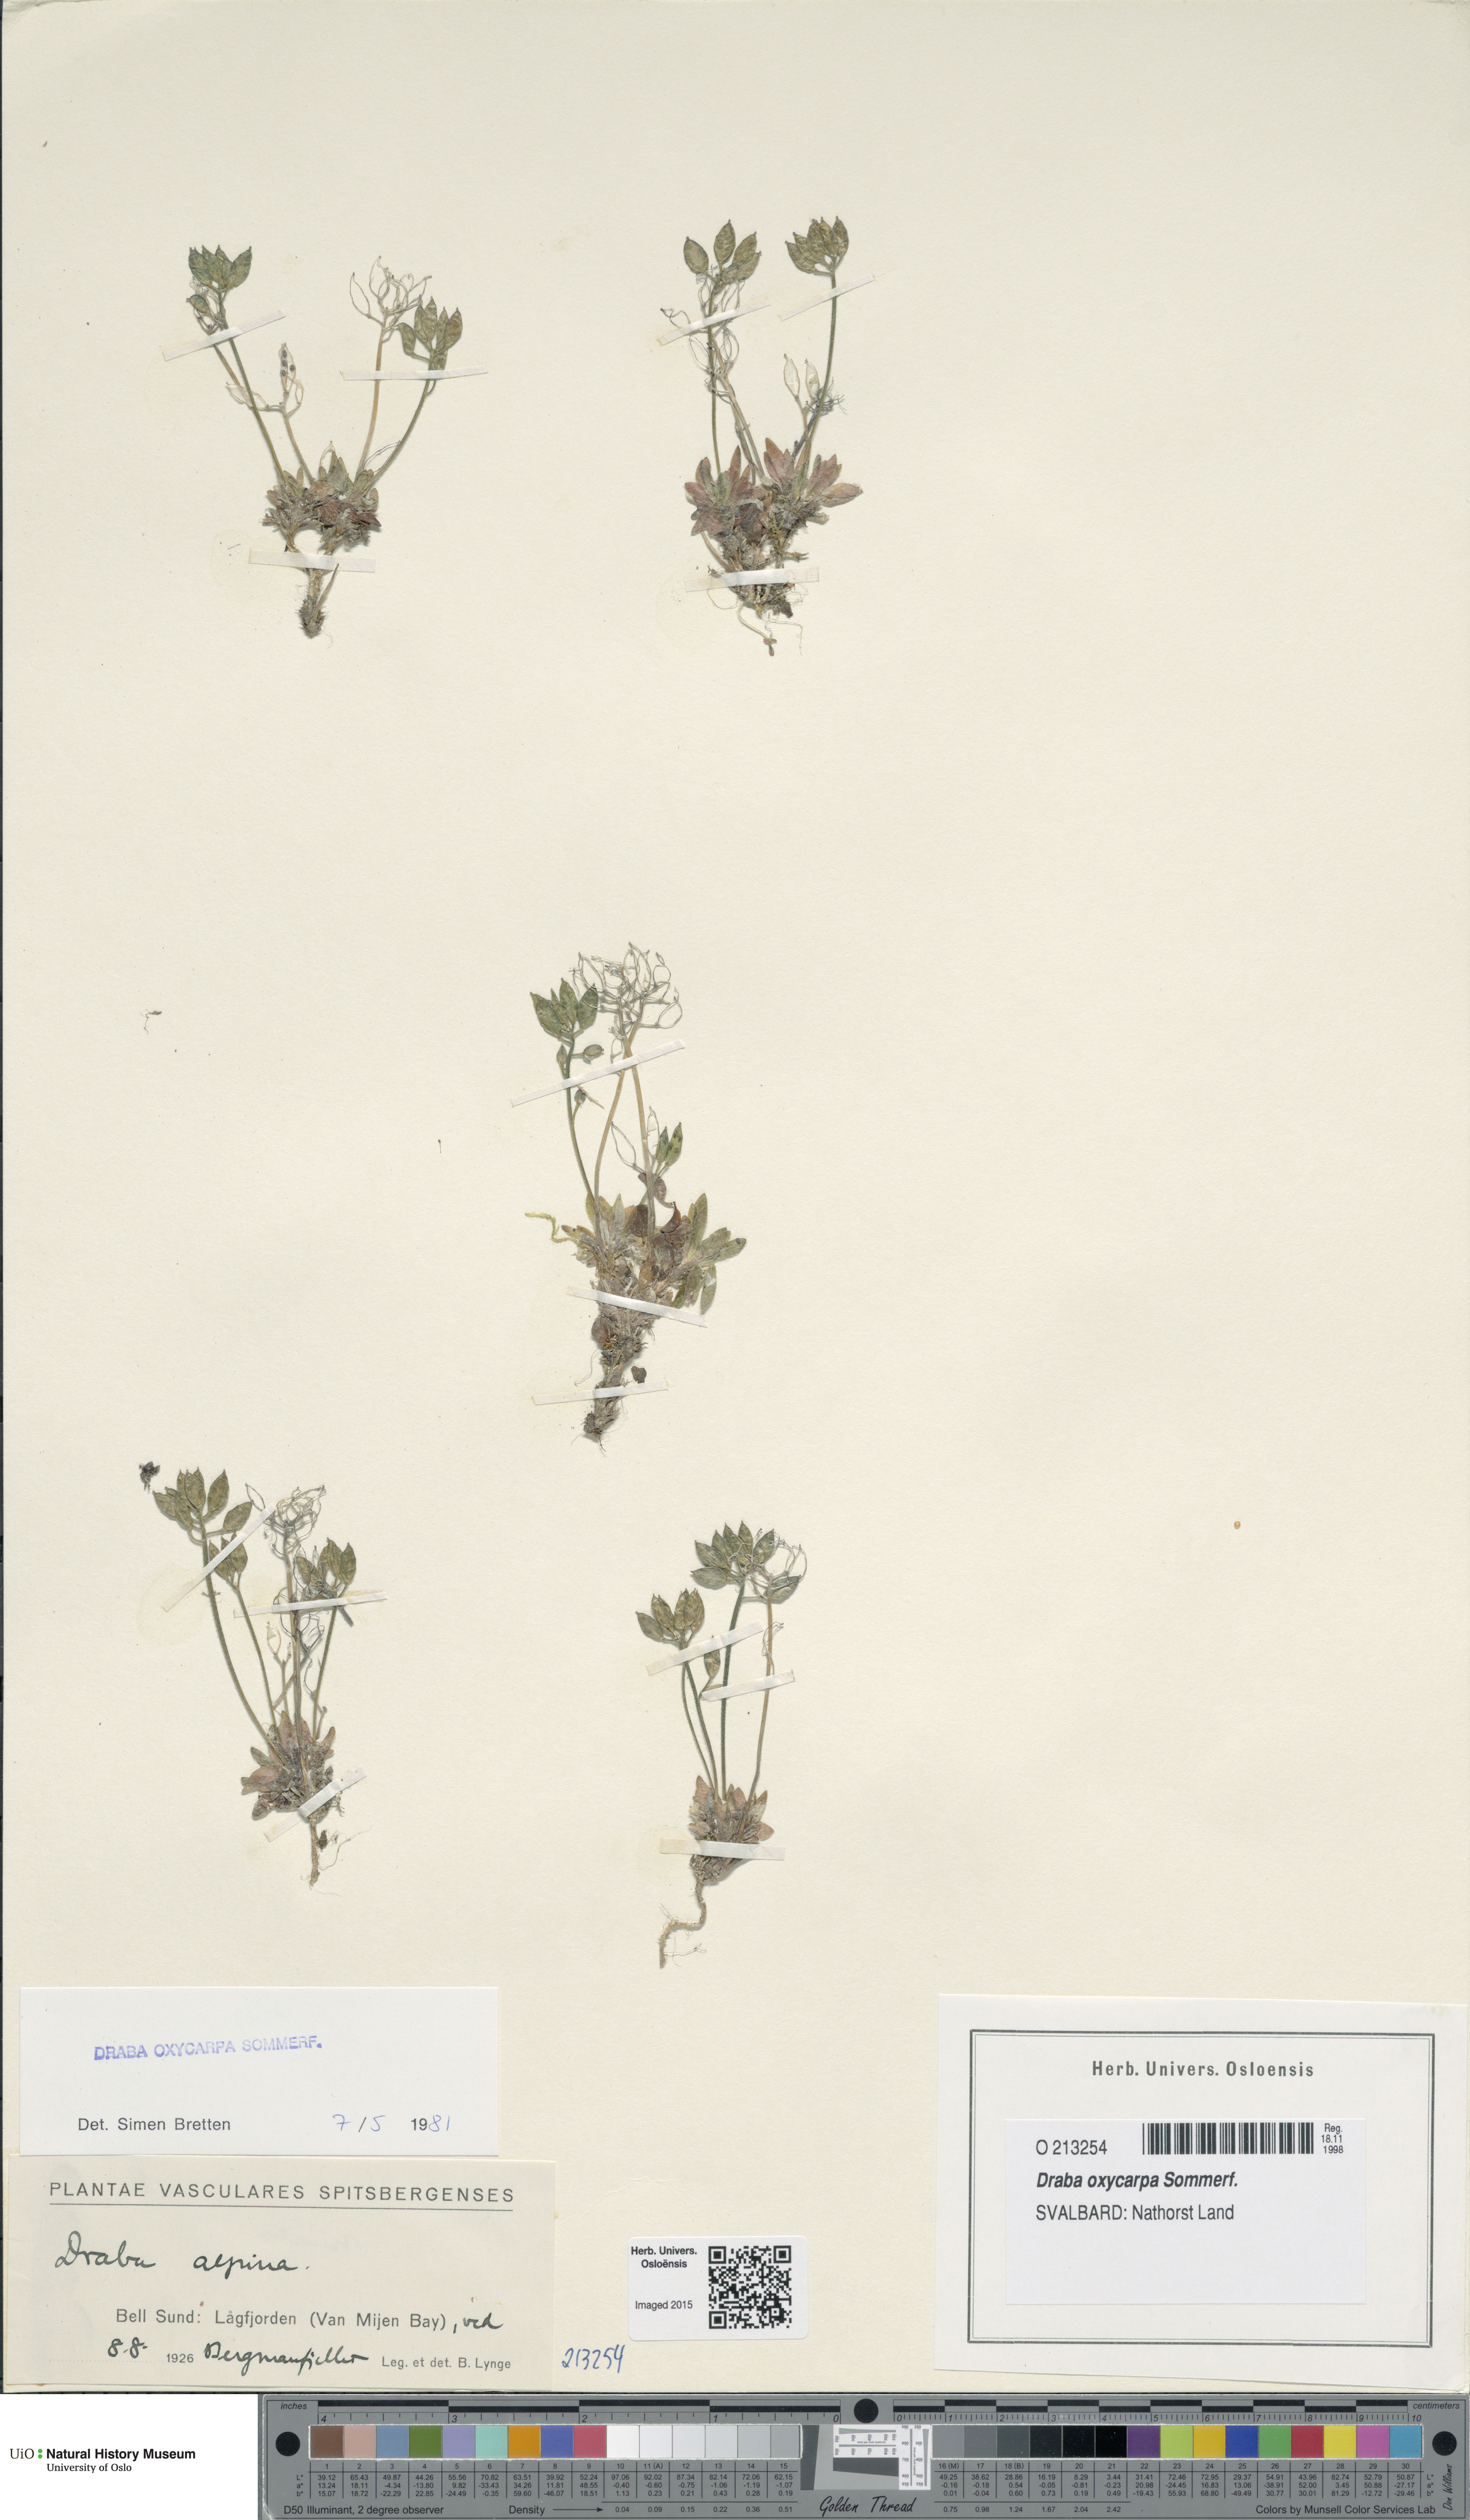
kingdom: Plantae
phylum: Tracheophyta
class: Magnoliopsida
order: Brassicales
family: Brassicaceae
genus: Draba
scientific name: Draba oxycarpa
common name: Sharp-fruited whitlow-grass
